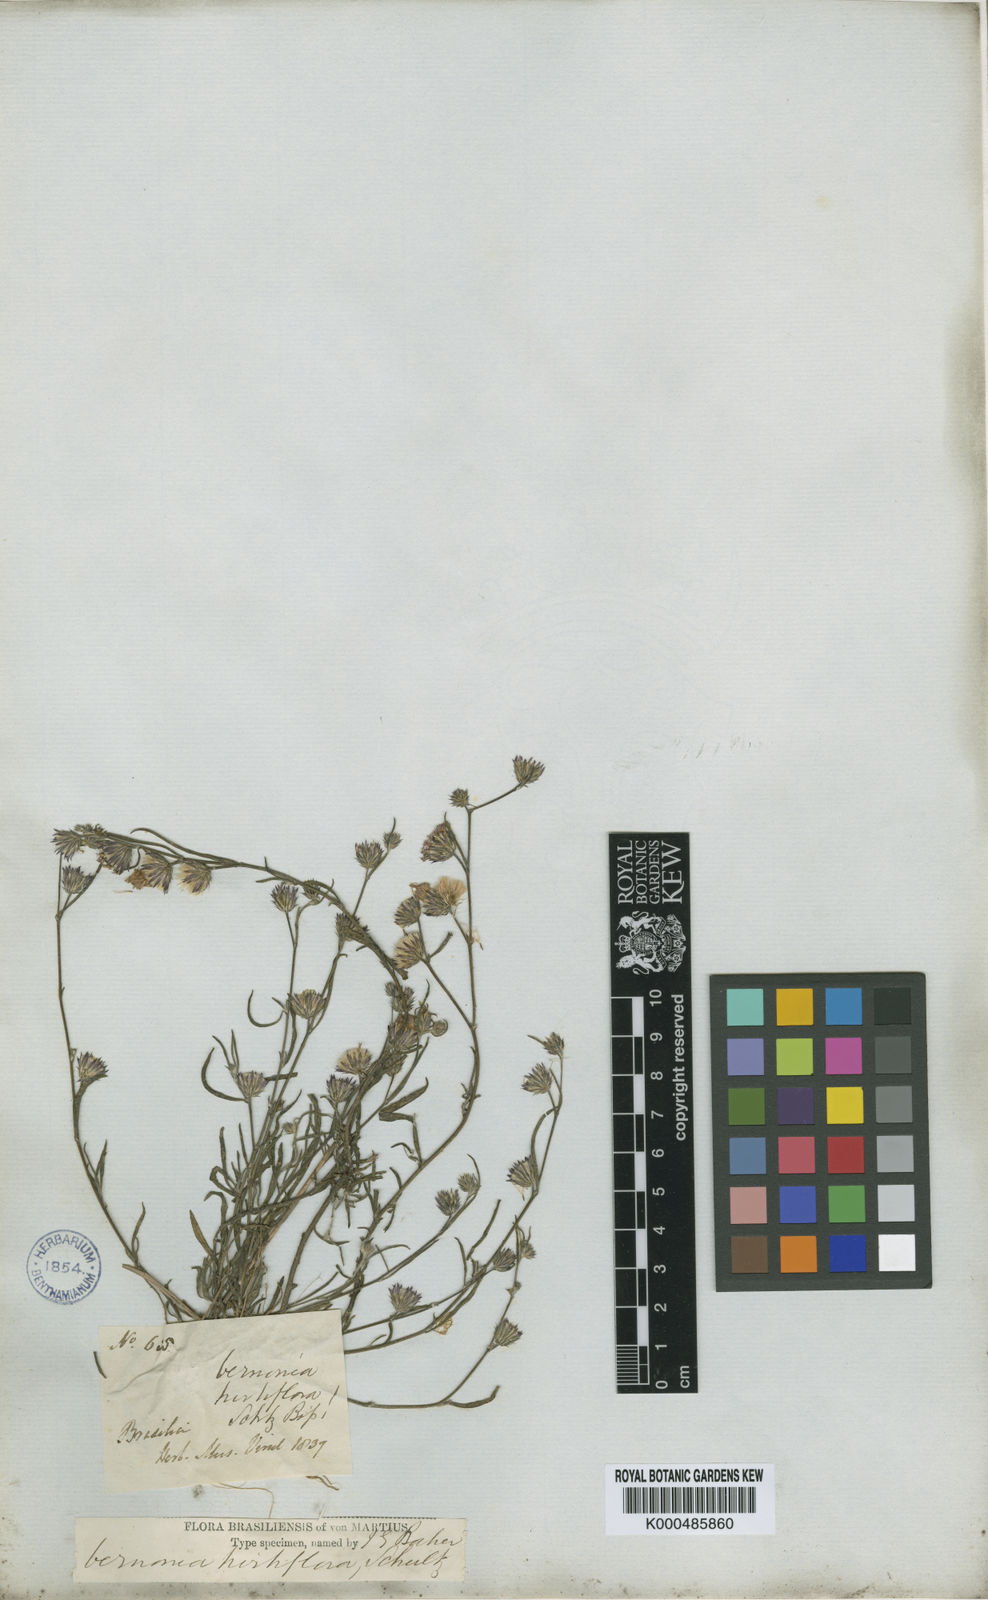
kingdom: Plantae
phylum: Tracheophyta
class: Magnoliopsida
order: Asterales
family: Asteraceae
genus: Lepidaploa
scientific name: Lepidaploa remotiflora
